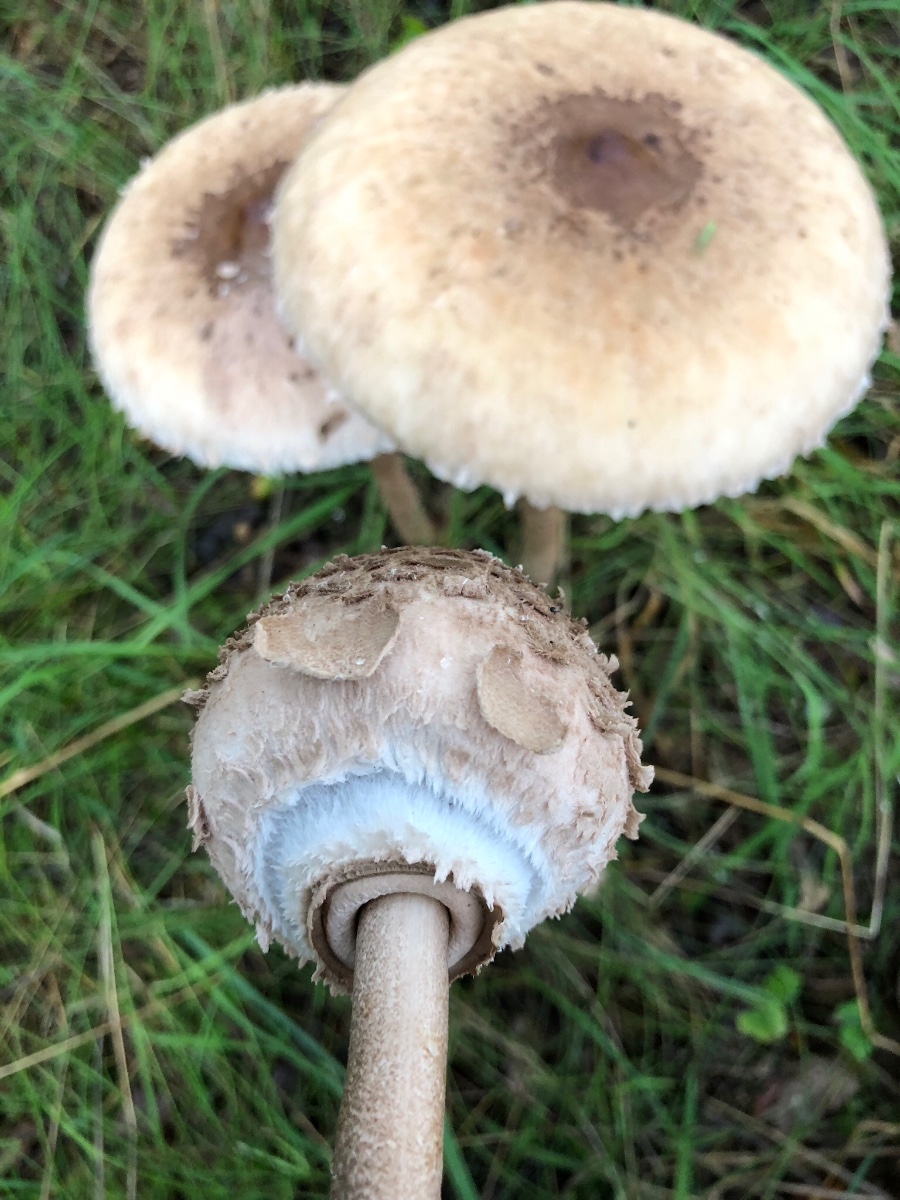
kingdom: Fungi
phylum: Basidiomycota
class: Agaricomycetes
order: Agaricales
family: Agaricaceae
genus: Macrolepiota
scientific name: Macrolepiota procera
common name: stor kæmpeparasolhat
